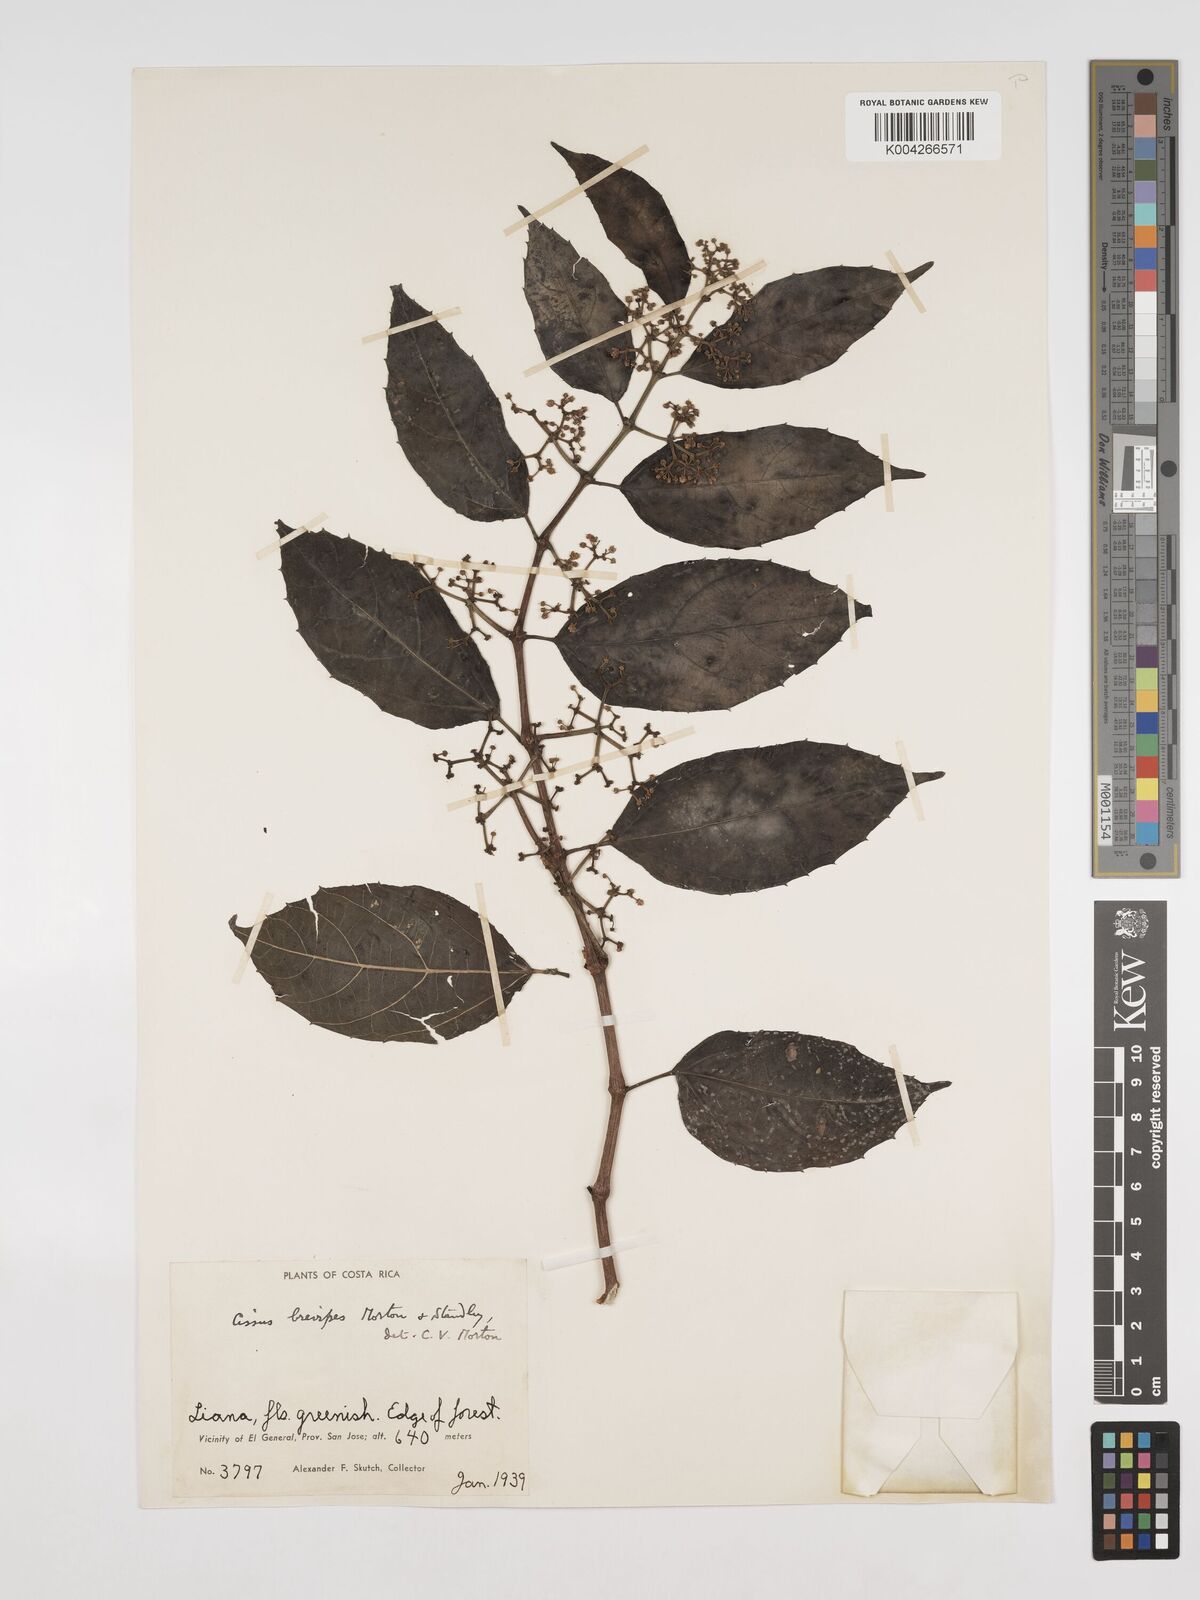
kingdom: Plantae
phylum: Tracheophyta
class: Magnoliopsida
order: Vitales
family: Vitaceae
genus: Cissus
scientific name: Cissus brevipes
